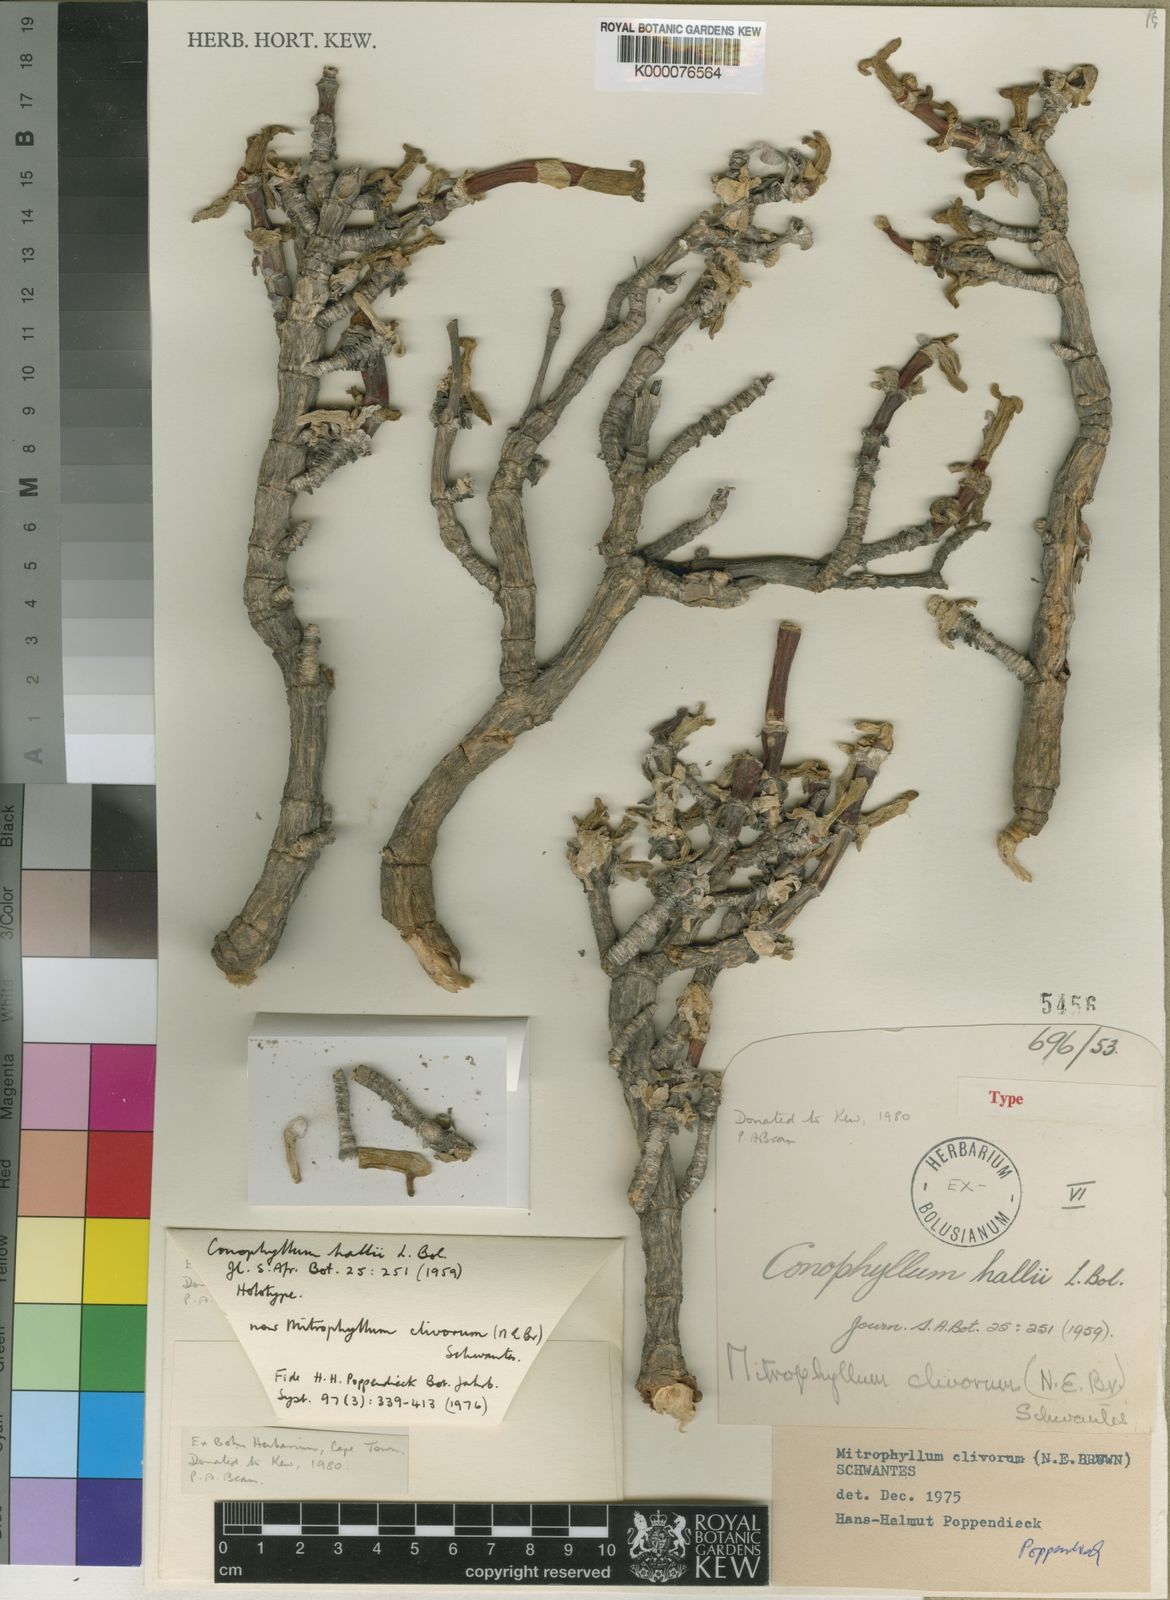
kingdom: Plantae
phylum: Tracheophyta
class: Magnoliopsida
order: Caryophyllales
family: Aizoaceae
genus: Mitrophyllum
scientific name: Mitrophyllum clivorum
